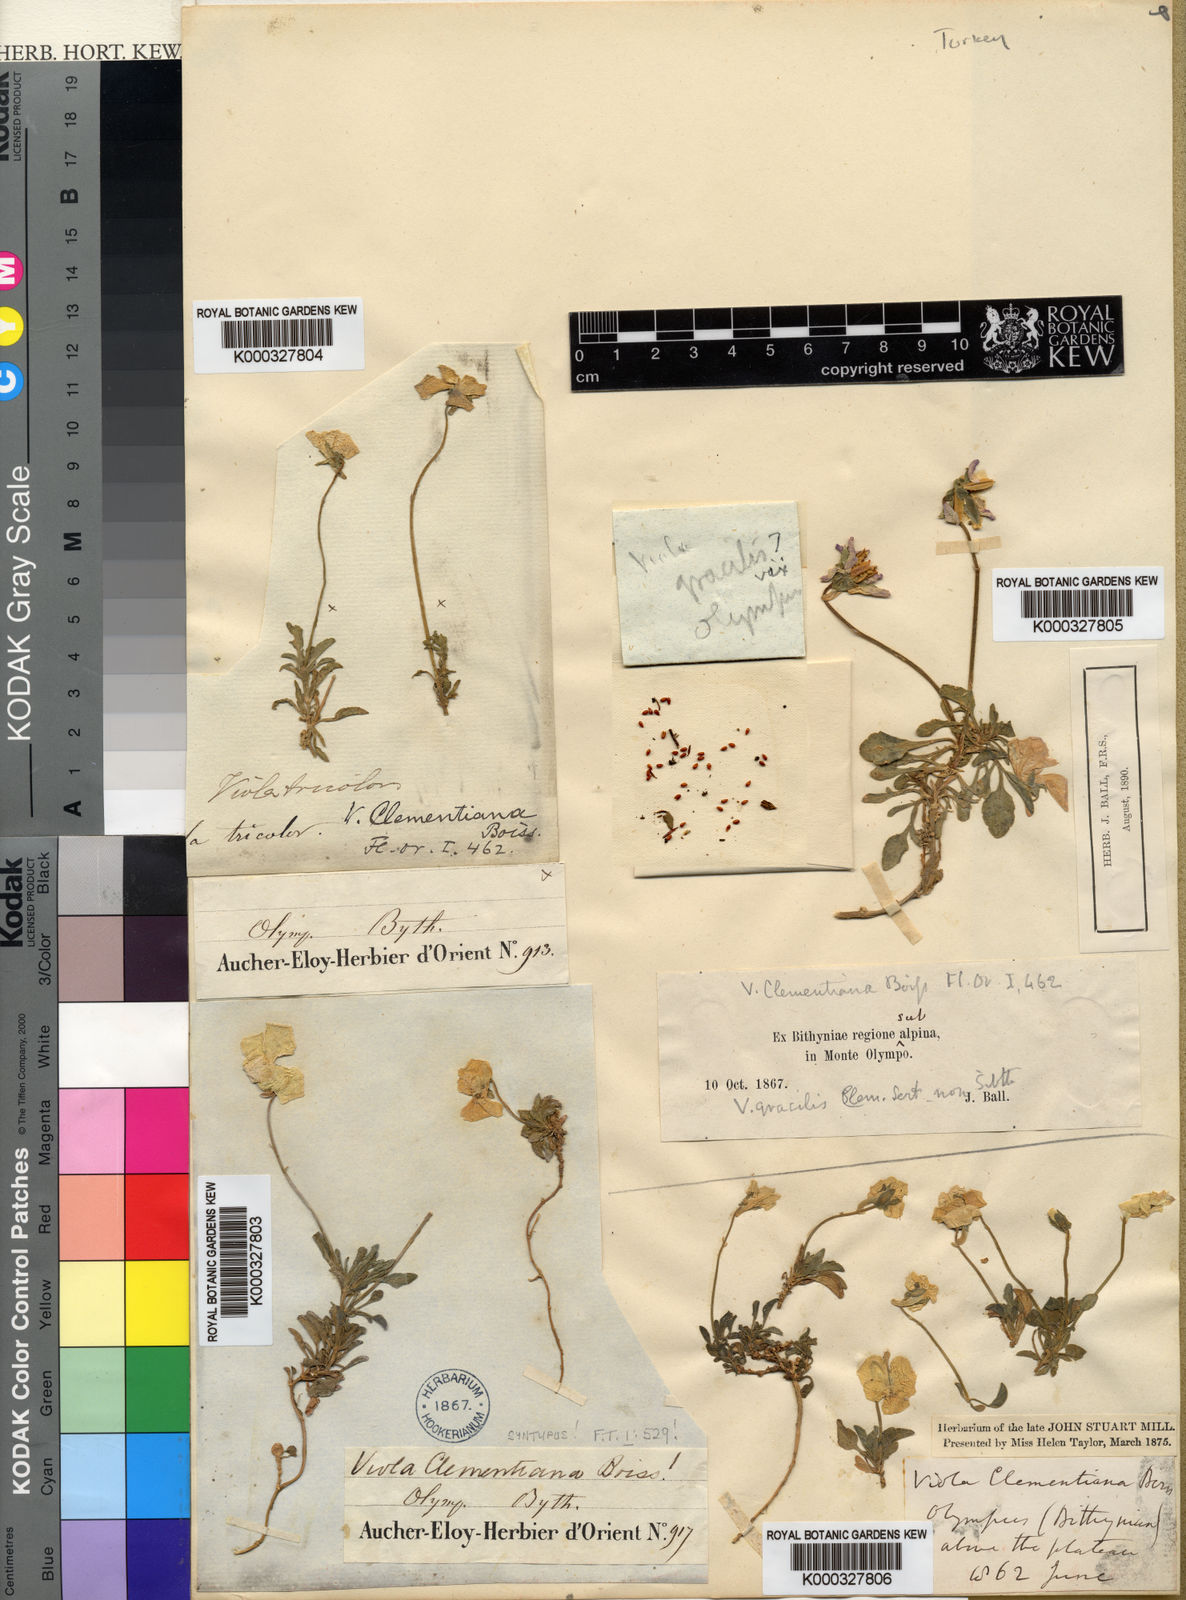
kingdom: Plantae
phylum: Tracheophyta
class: Magnoliopsida
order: Malpighiales
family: Violaceae
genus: Viola
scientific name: Viola altaica
